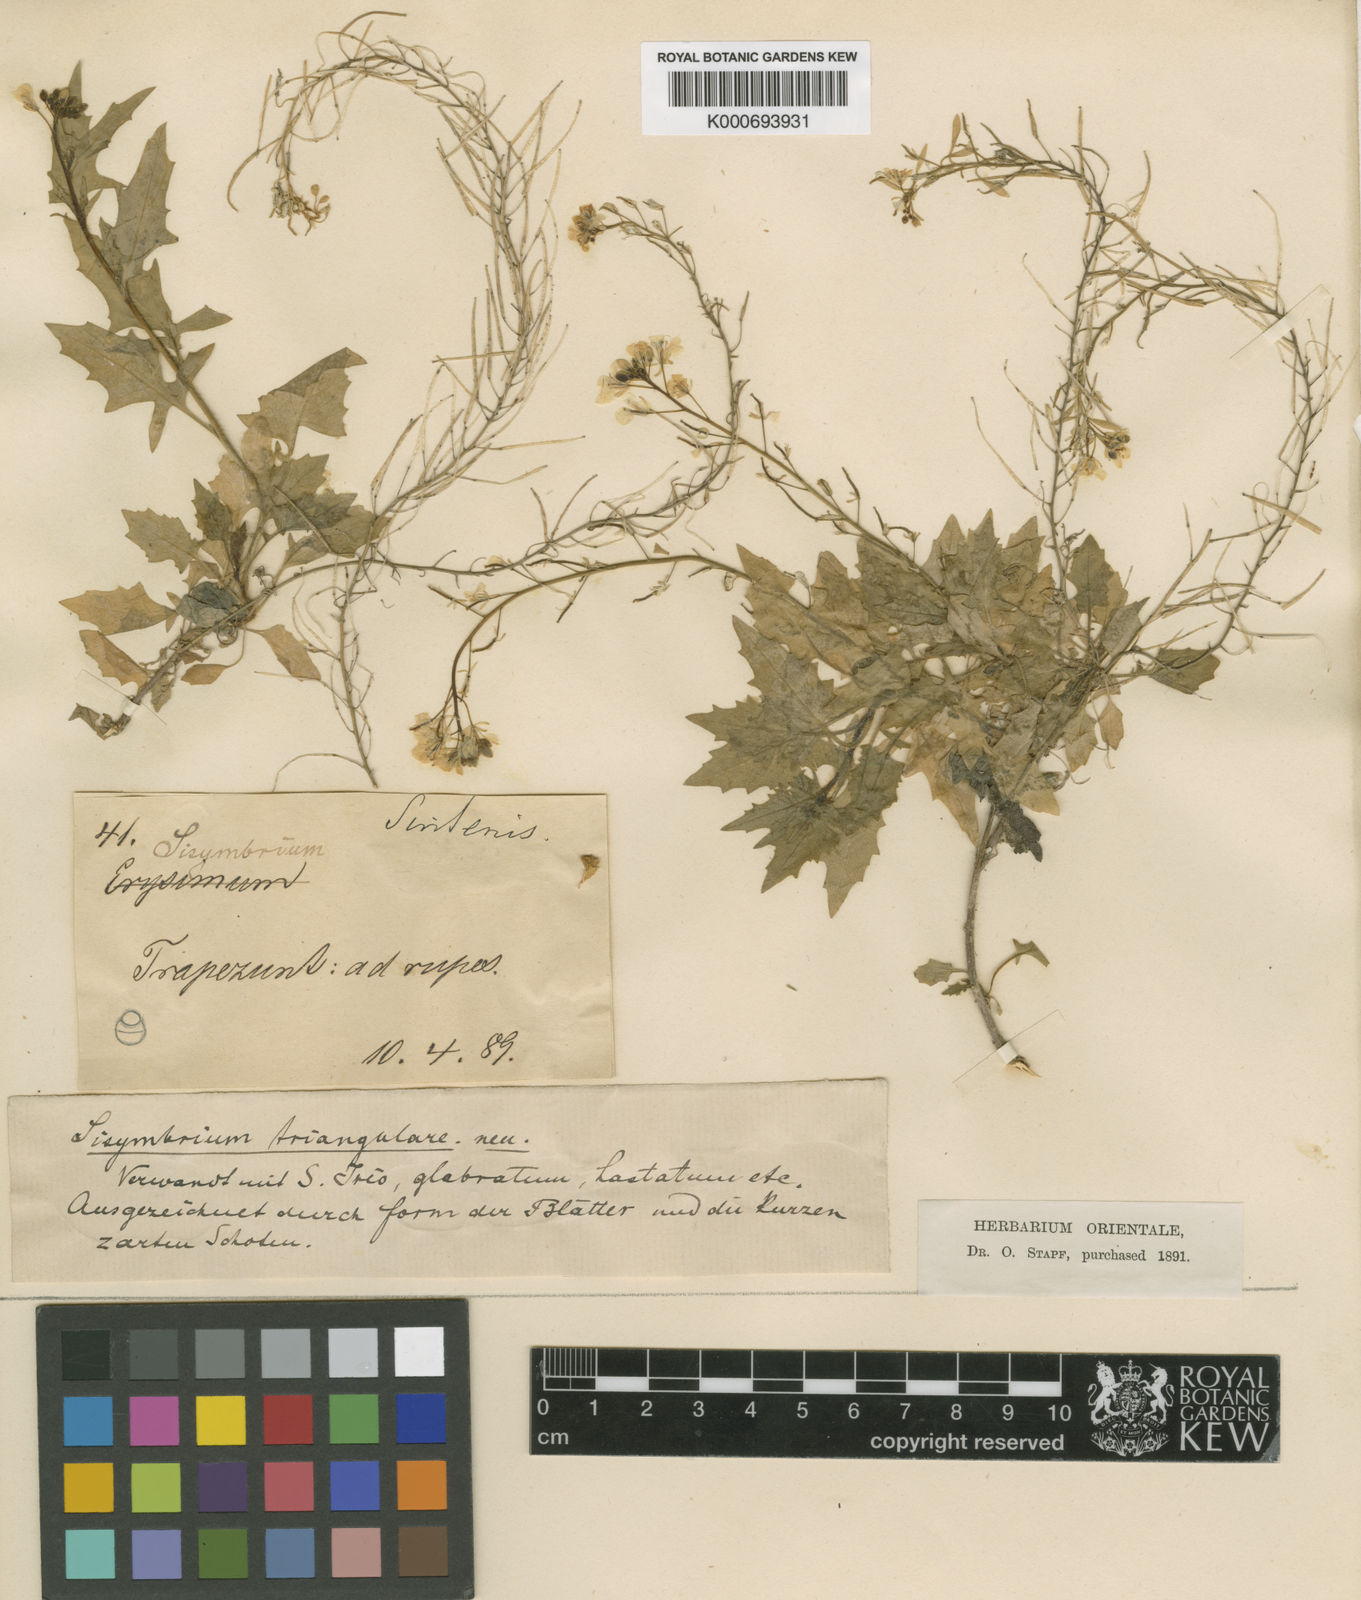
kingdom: Plantae
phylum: Tracheophyta
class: Magnoliopsida
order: Brassicales
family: Brassicaceae
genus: Sisymbrium
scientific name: Sisymbrium loeselii
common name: False london-rocket
